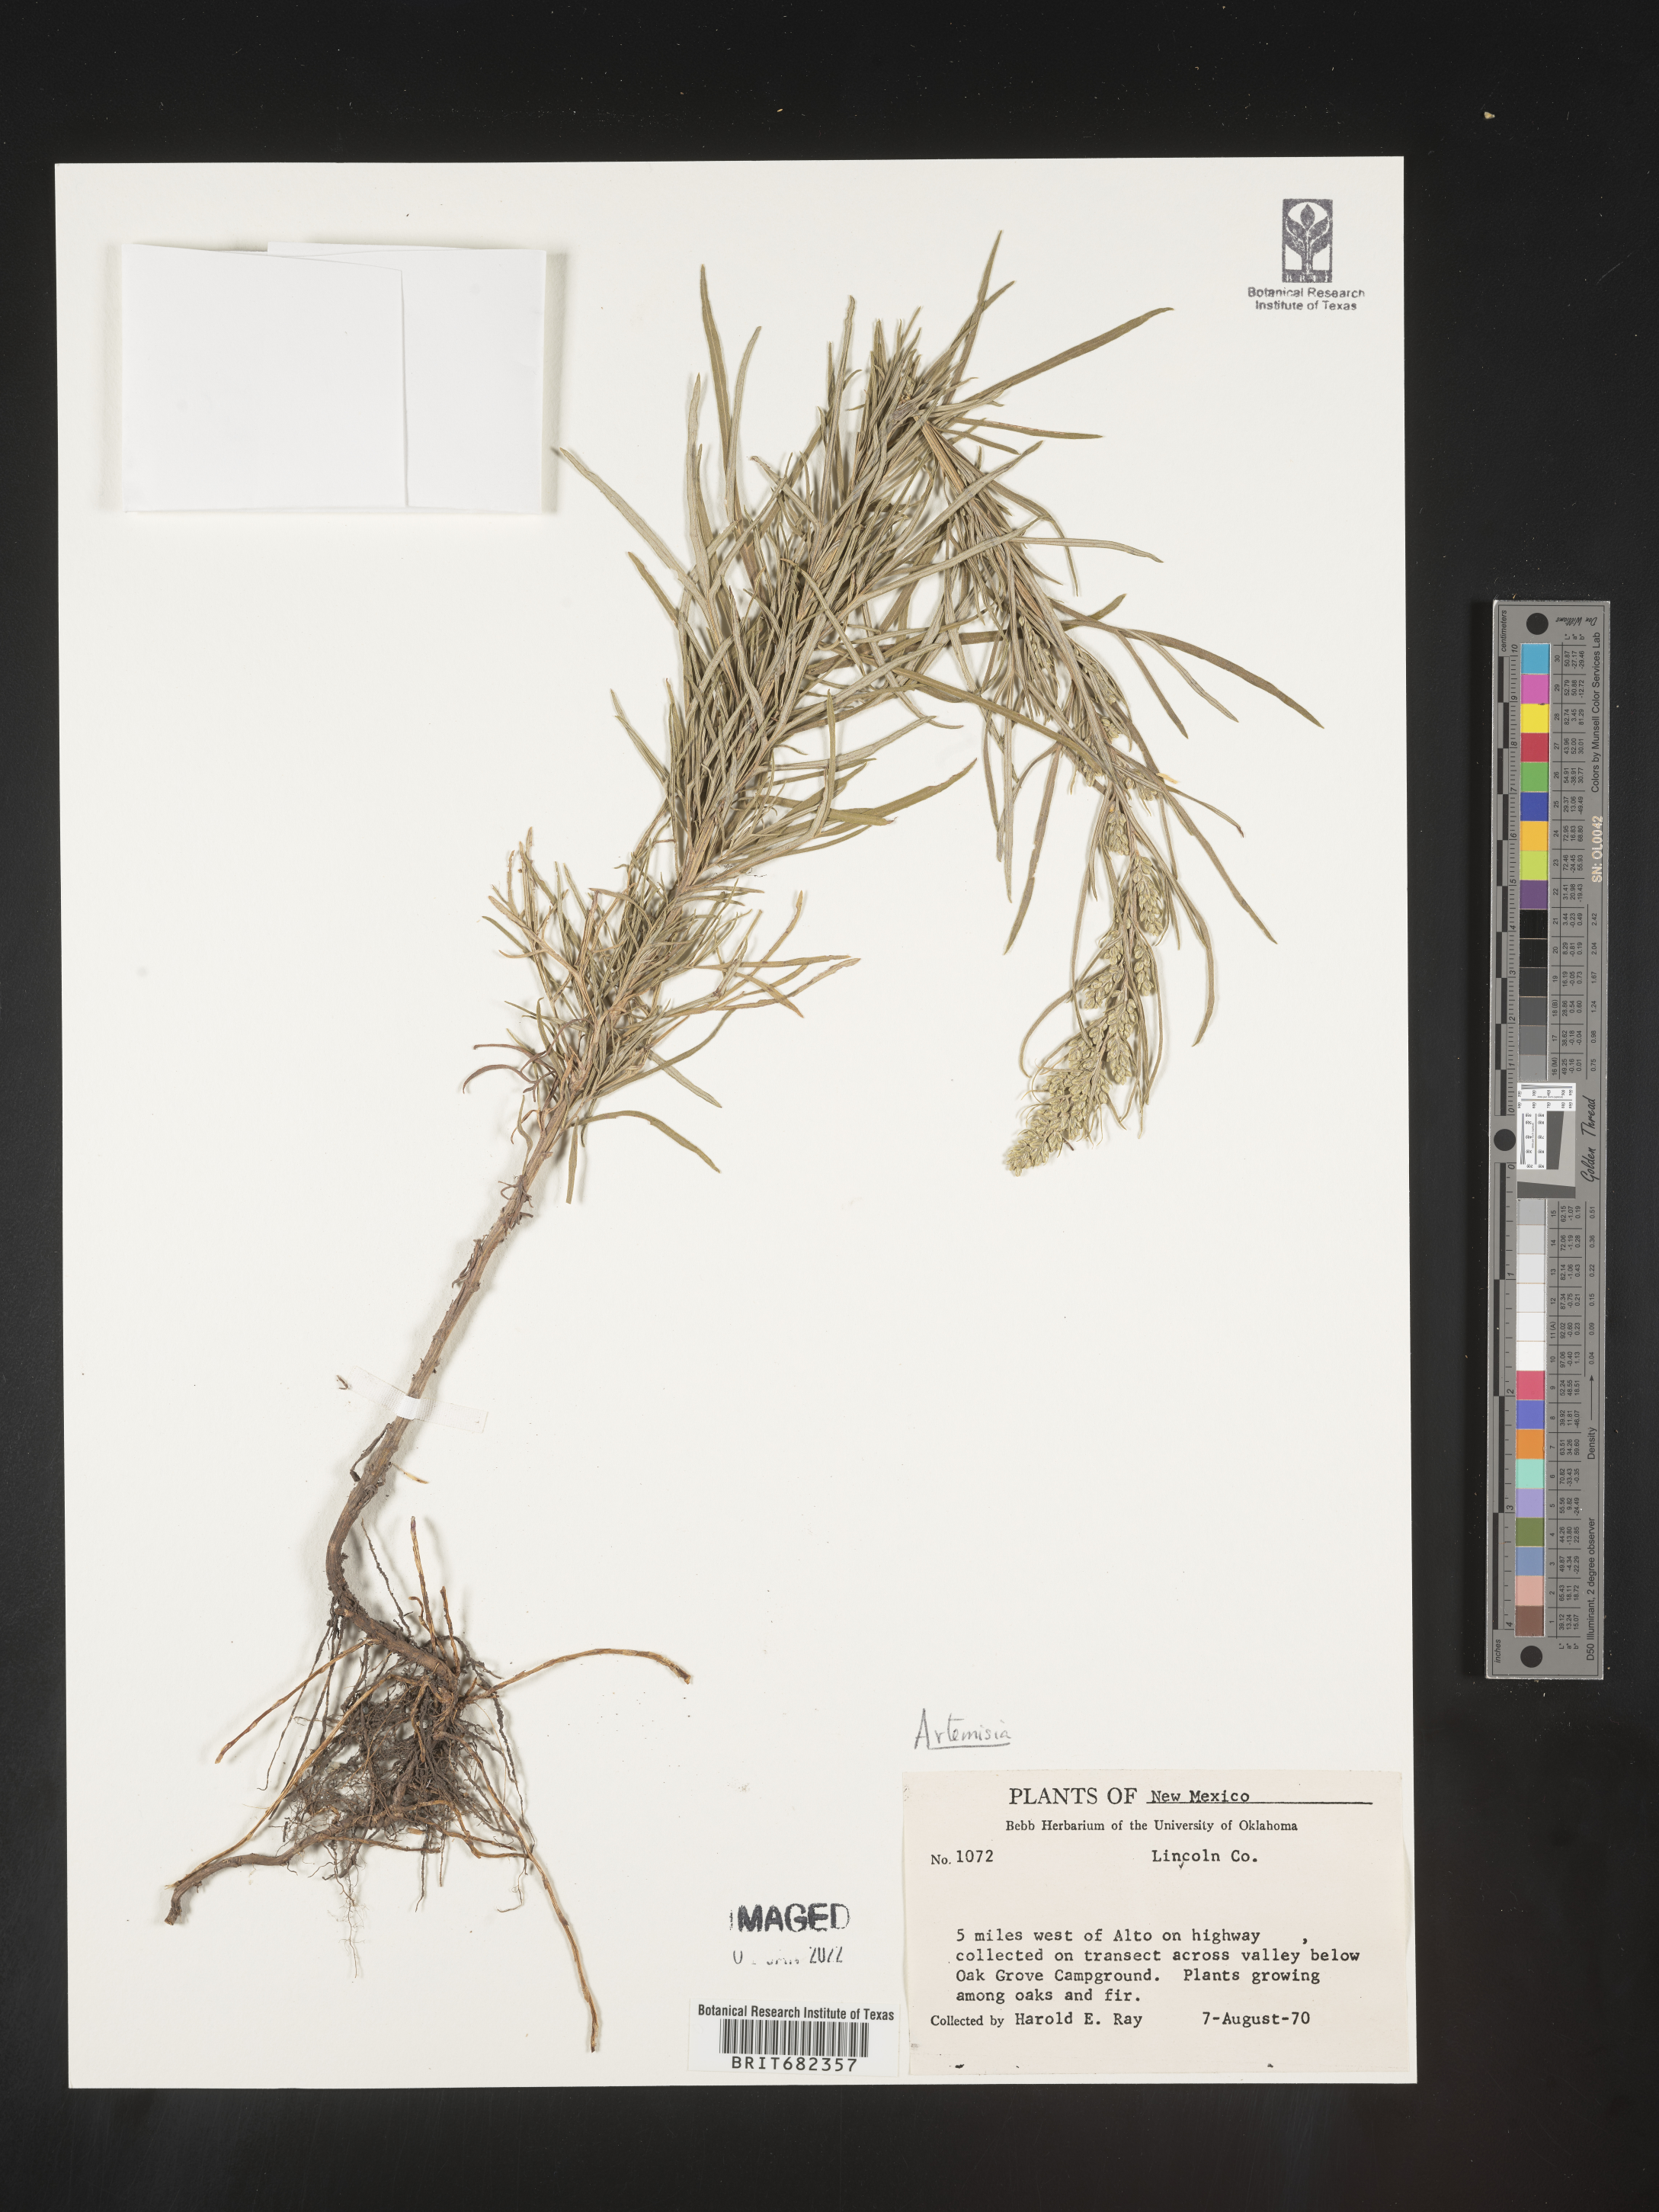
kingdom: Plantae
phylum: Tracheophyta
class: Magnoliopsida
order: Asterales
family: Asteraceae
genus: Artemisia
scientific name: Artemisia
